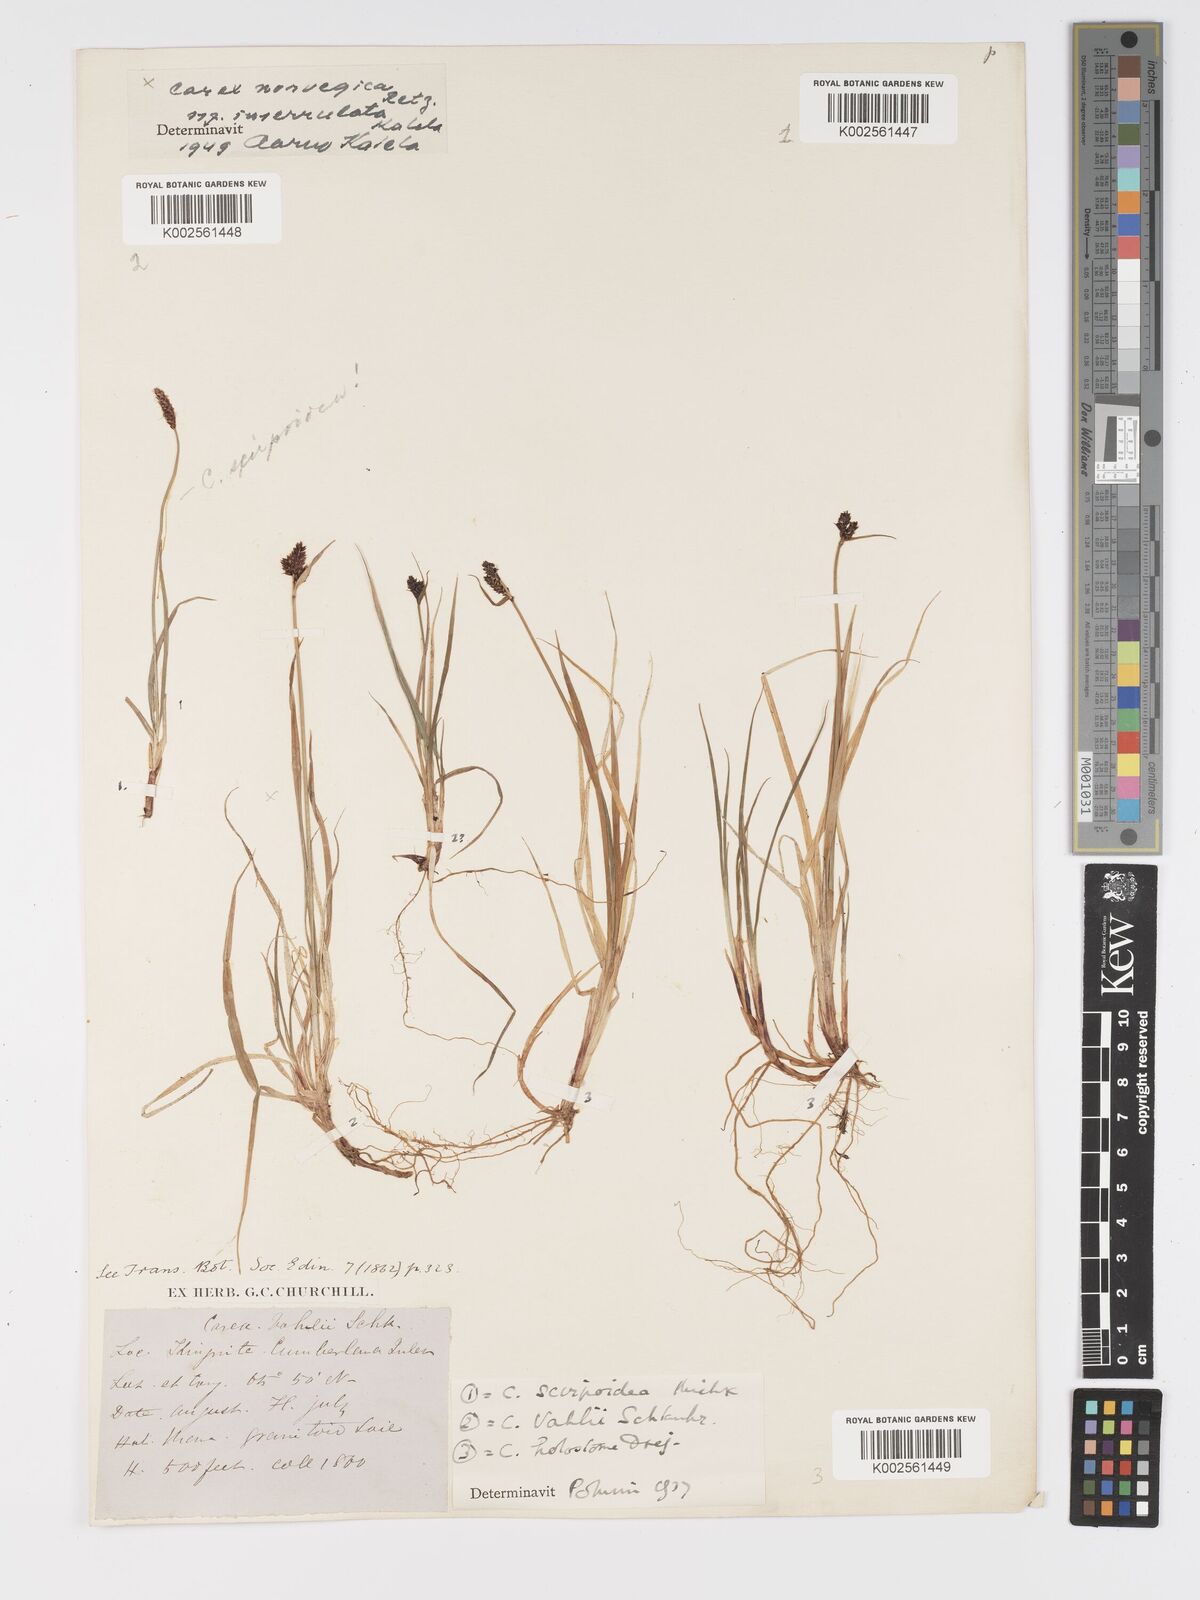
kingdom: Plantae
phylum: Tracheophyta
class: Liliopsida
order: Poales
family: Cyperaceae
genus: Carex
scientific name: Carex norvegica
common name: Close-headed alpine-sedge
